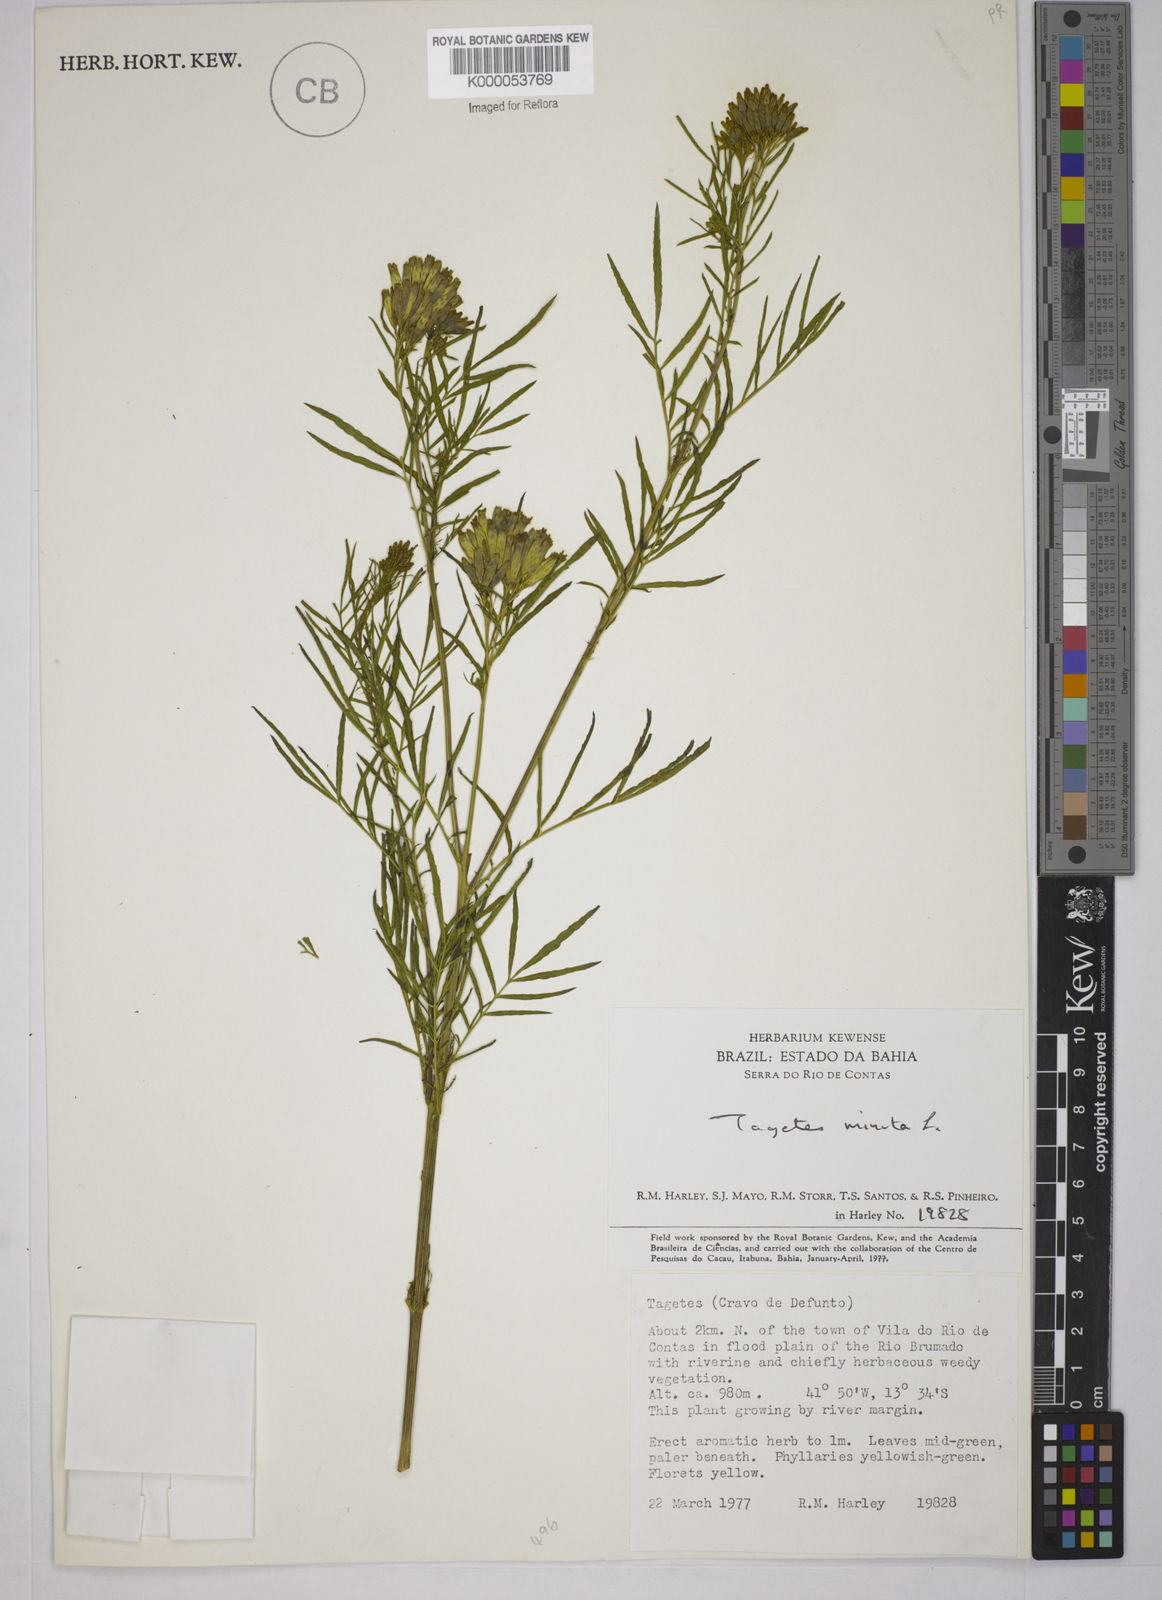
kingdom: Plantae
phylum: Tracheophyta
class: Magnoliopsida
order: Asterales
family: Asteraceae
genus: Tagetes
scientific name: Tagetes minuta
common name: Muster john henry
